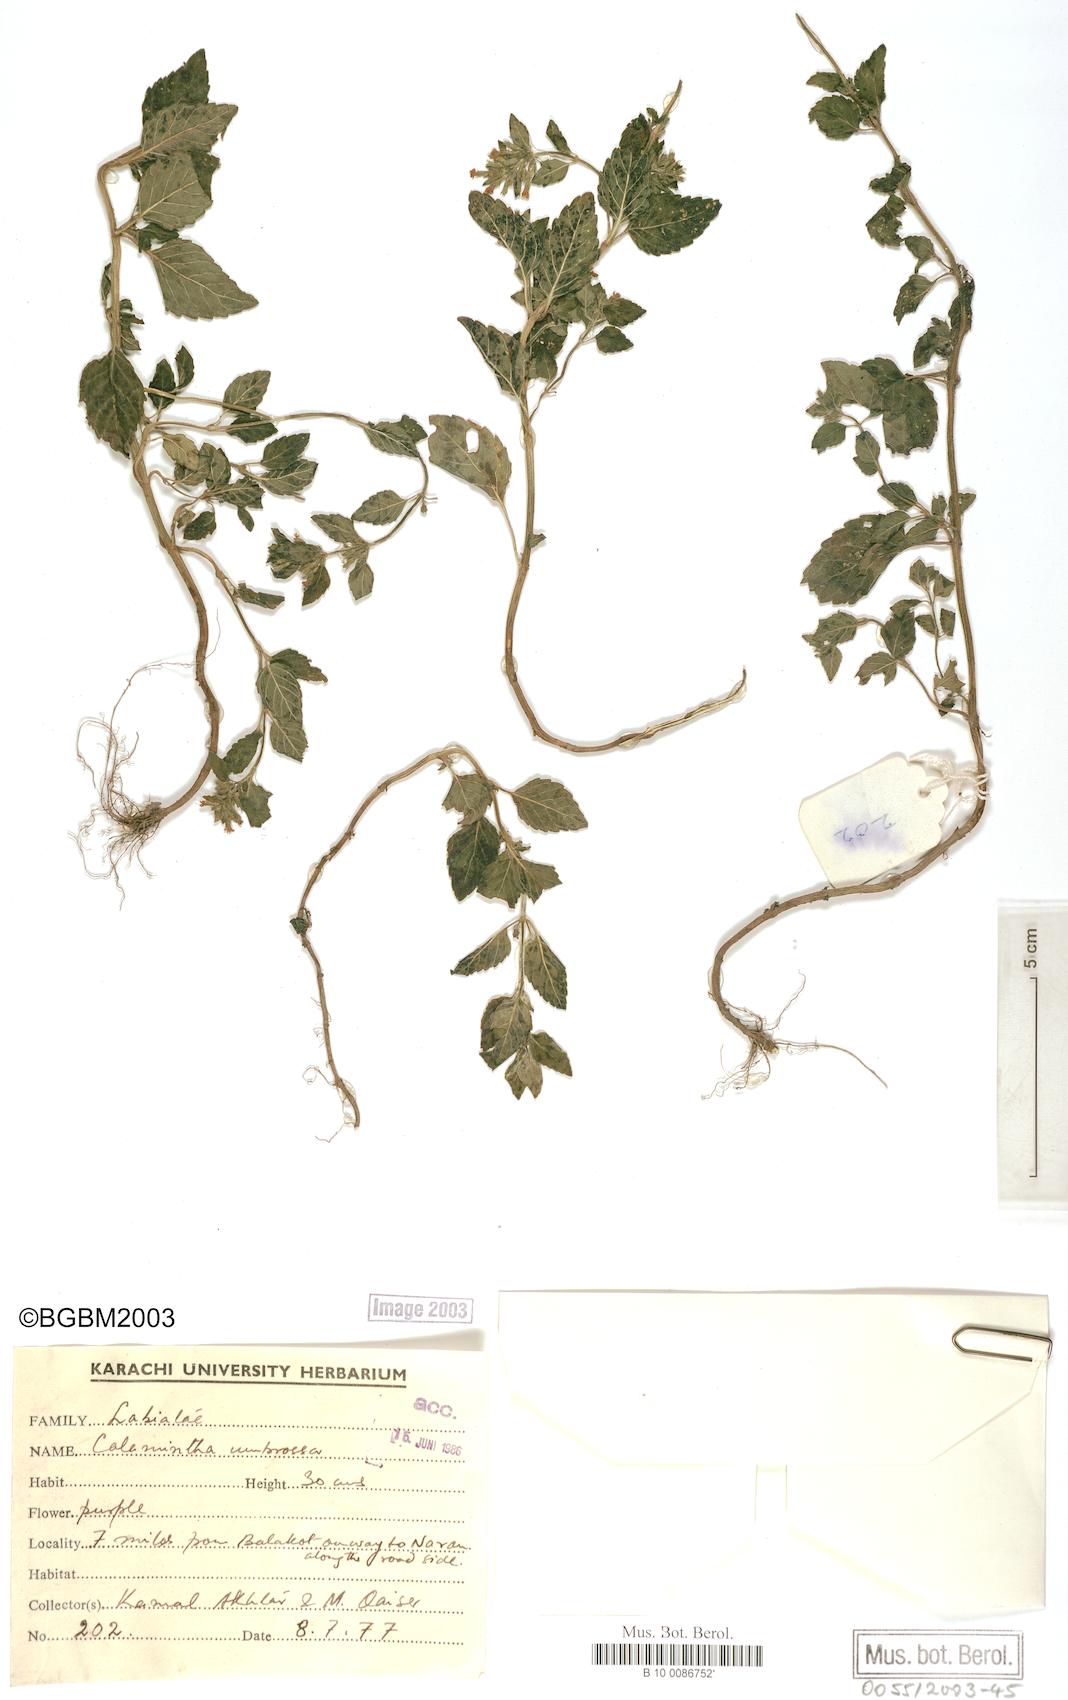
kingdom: Plantae
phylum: Tracheophyta
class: Magnoliopsida
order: Lamiales
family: Lamiaceae
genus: Clinopodium
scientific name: Clinopodium umbrosum
